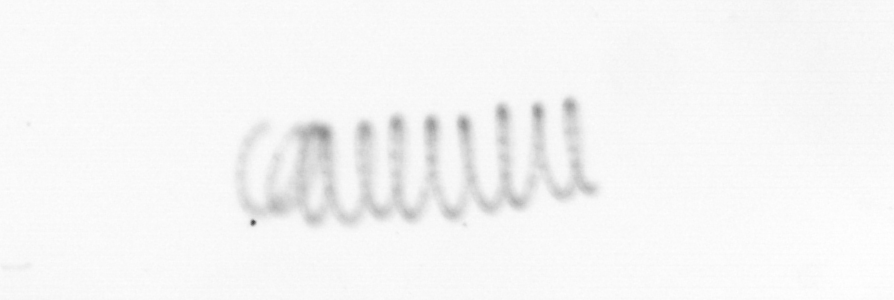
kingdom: Chromista
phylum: Ochrophyta
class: Bacillariophyceae
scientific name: Bacillariophyceae
